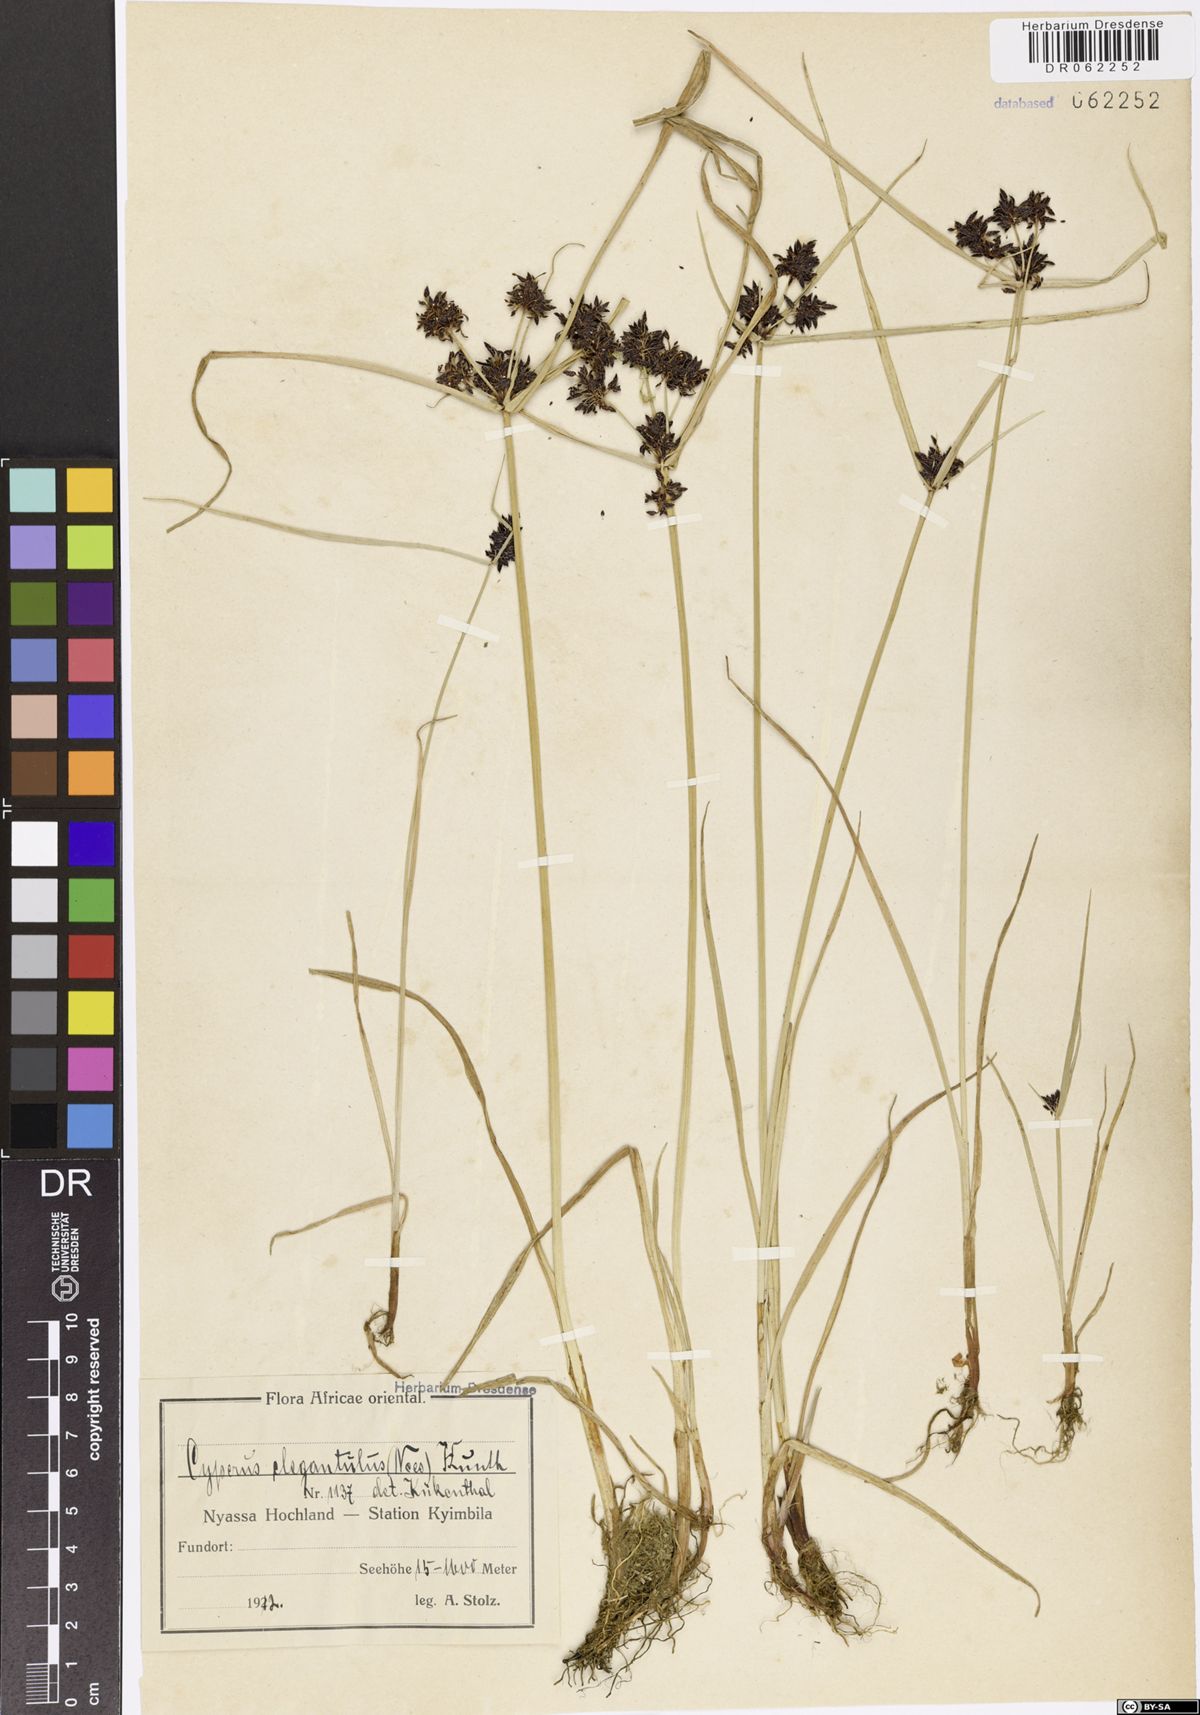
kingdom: Plantae
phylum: Tracheophyta
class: Liliopsida
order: Poales
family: Cyperaceae
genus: Cyperus
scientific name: Cyperus elegantulus
